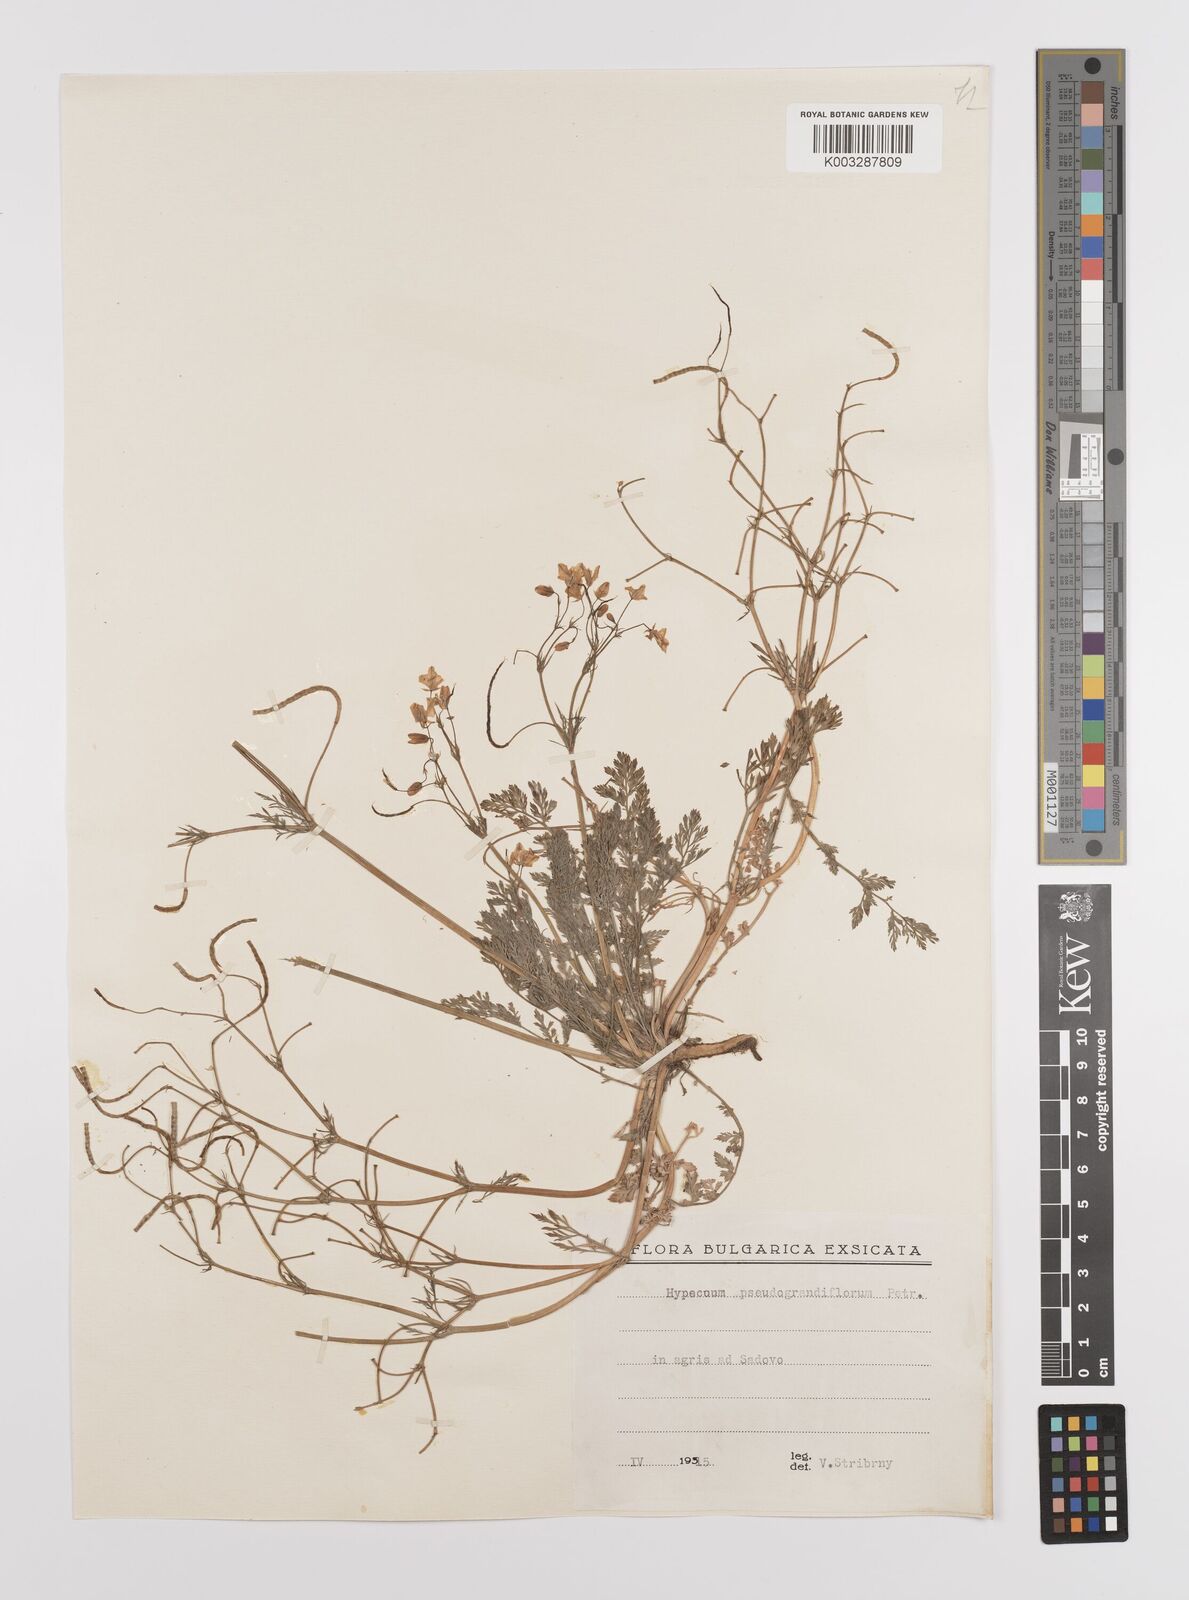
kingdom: Plantae
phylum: Tracheophyta
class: Magnoliopsida
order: Ranunculales
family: Papaveraceae
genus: Hypecoum
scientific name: Hypecoum imberbe
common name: Sicklefruit hypecoum
